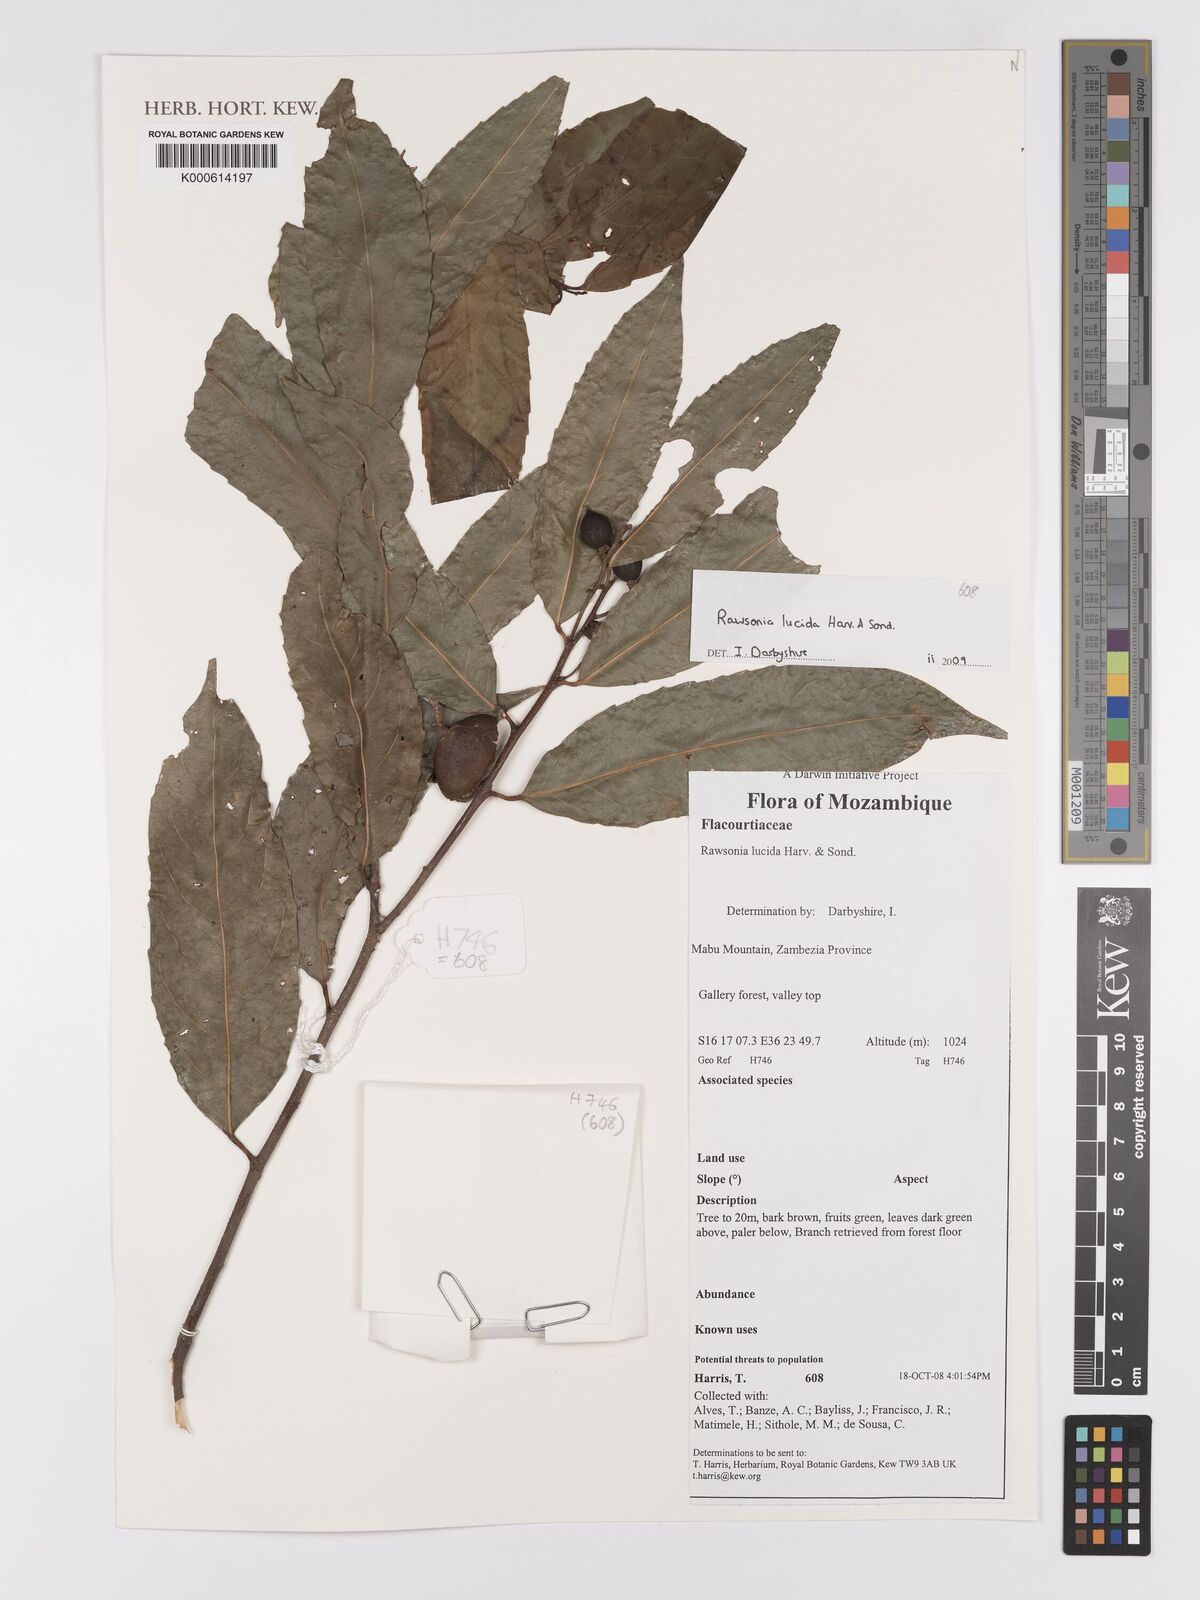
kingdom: Plantae
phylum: Tracheophyta
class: Magnoliopsida
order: Malpighiales
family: Achariaceae
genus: Rawsonia
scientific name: Rawsonia lucida
